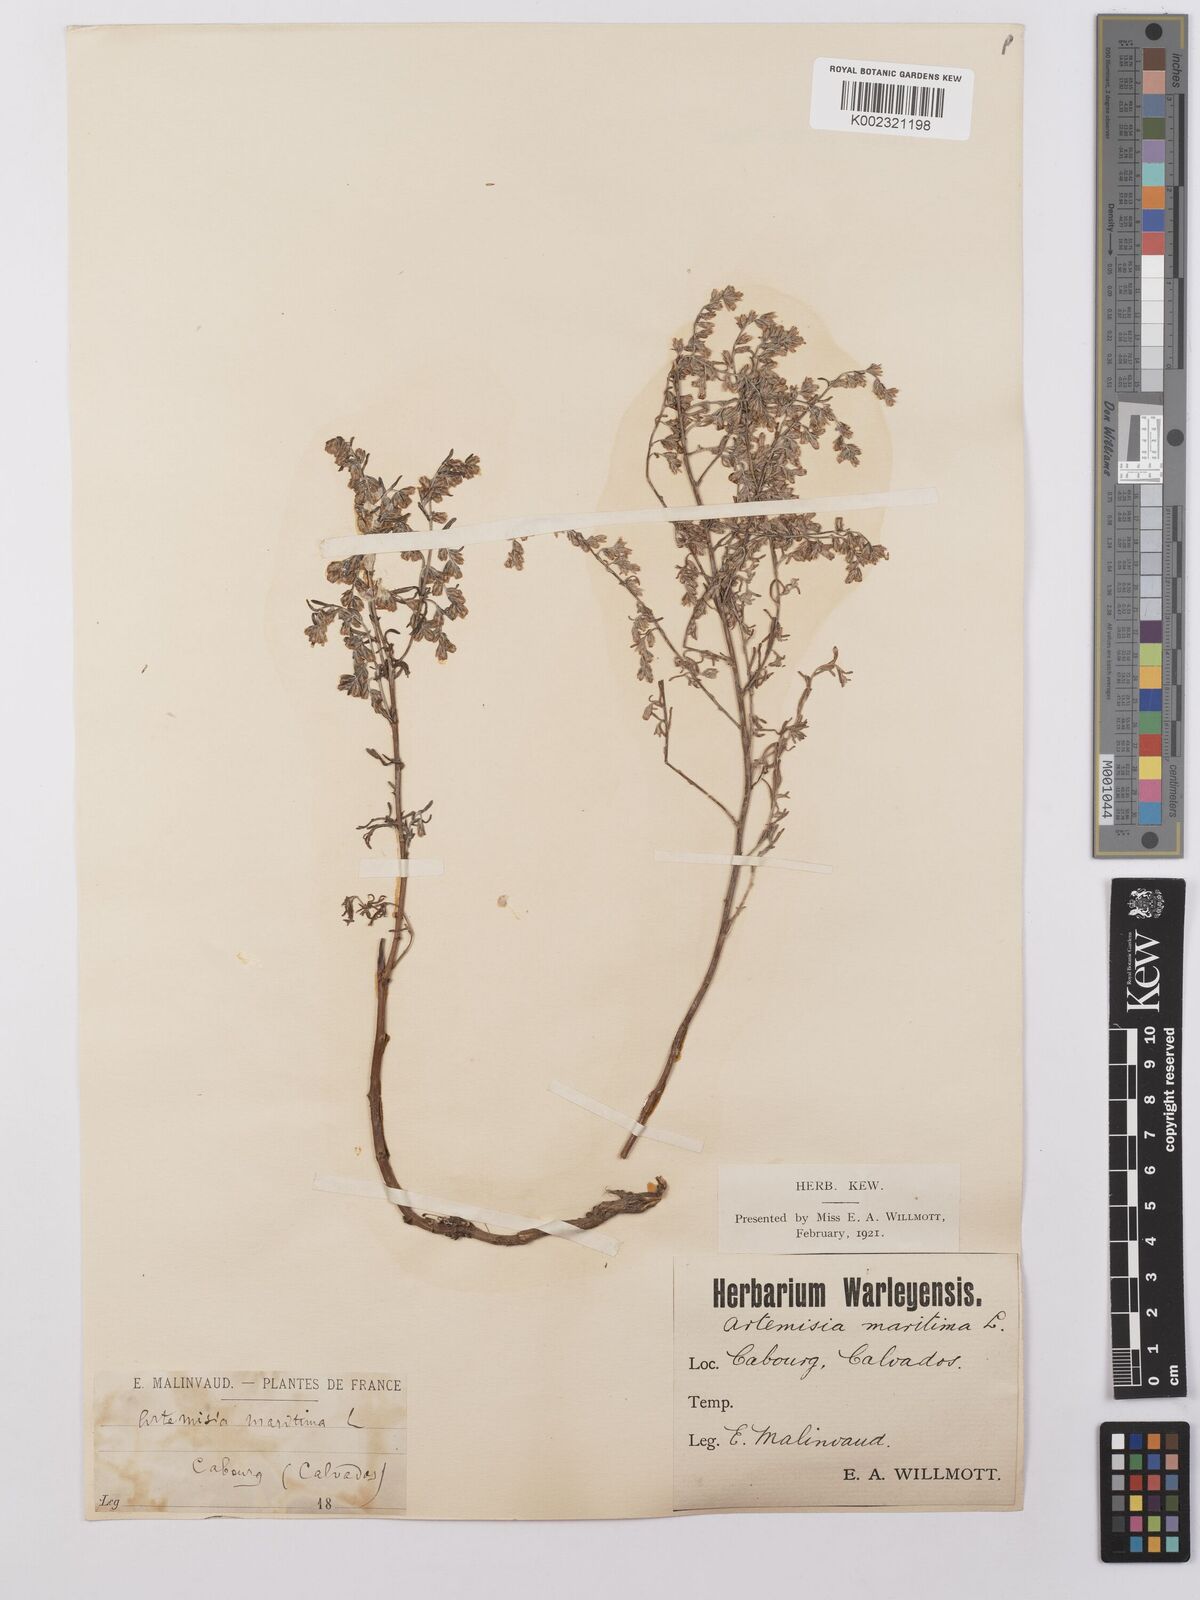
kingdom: Plantae
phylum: Tracheophyta
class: Magnoliopsida
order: Asterales
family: Asteraceae
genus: Artemisia
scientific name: Artemisia maritima
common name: Wormseed
